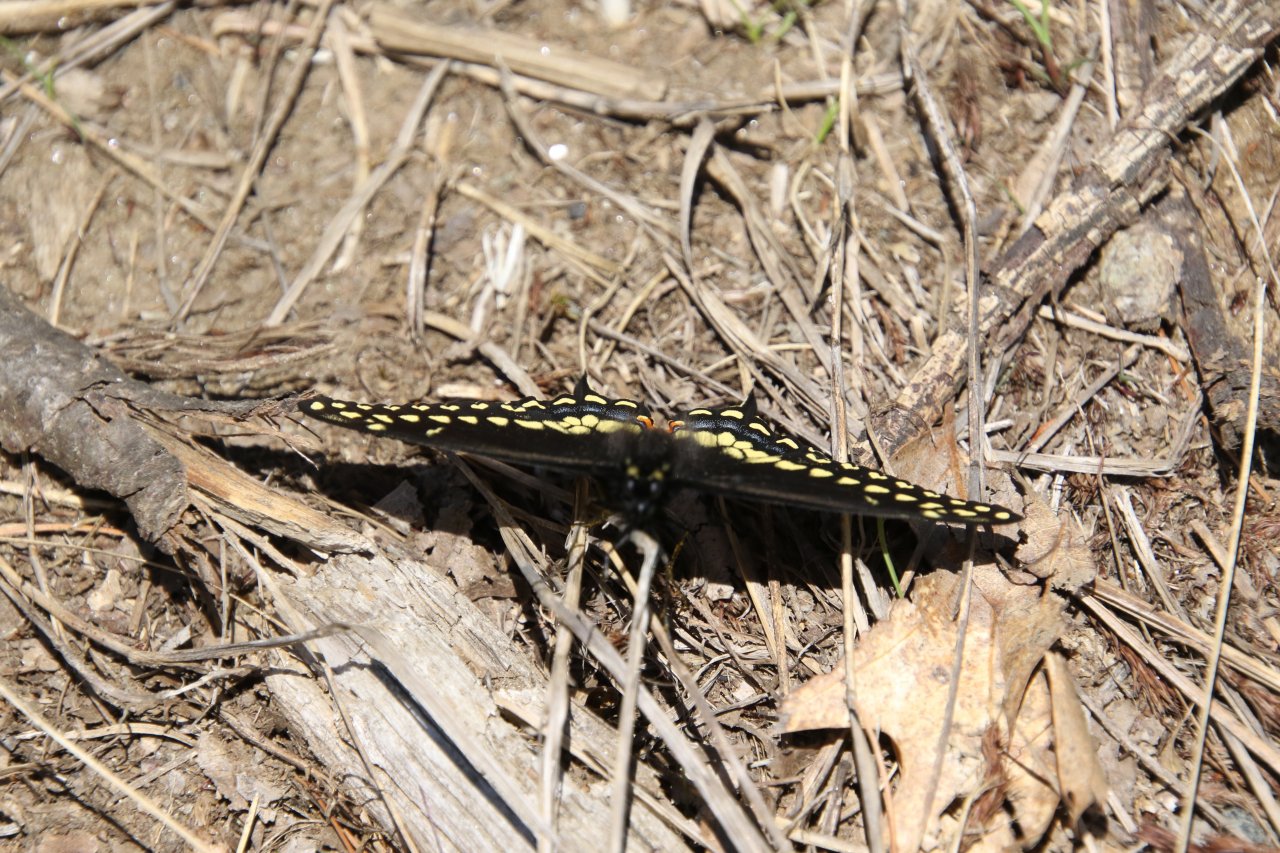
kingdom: Animalia
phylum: Arthropoda
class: Insecta
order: Lepidoptera
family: Papilionidae
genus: Papilio
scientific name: Papilio polyxenes
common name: Black Swallowtail
